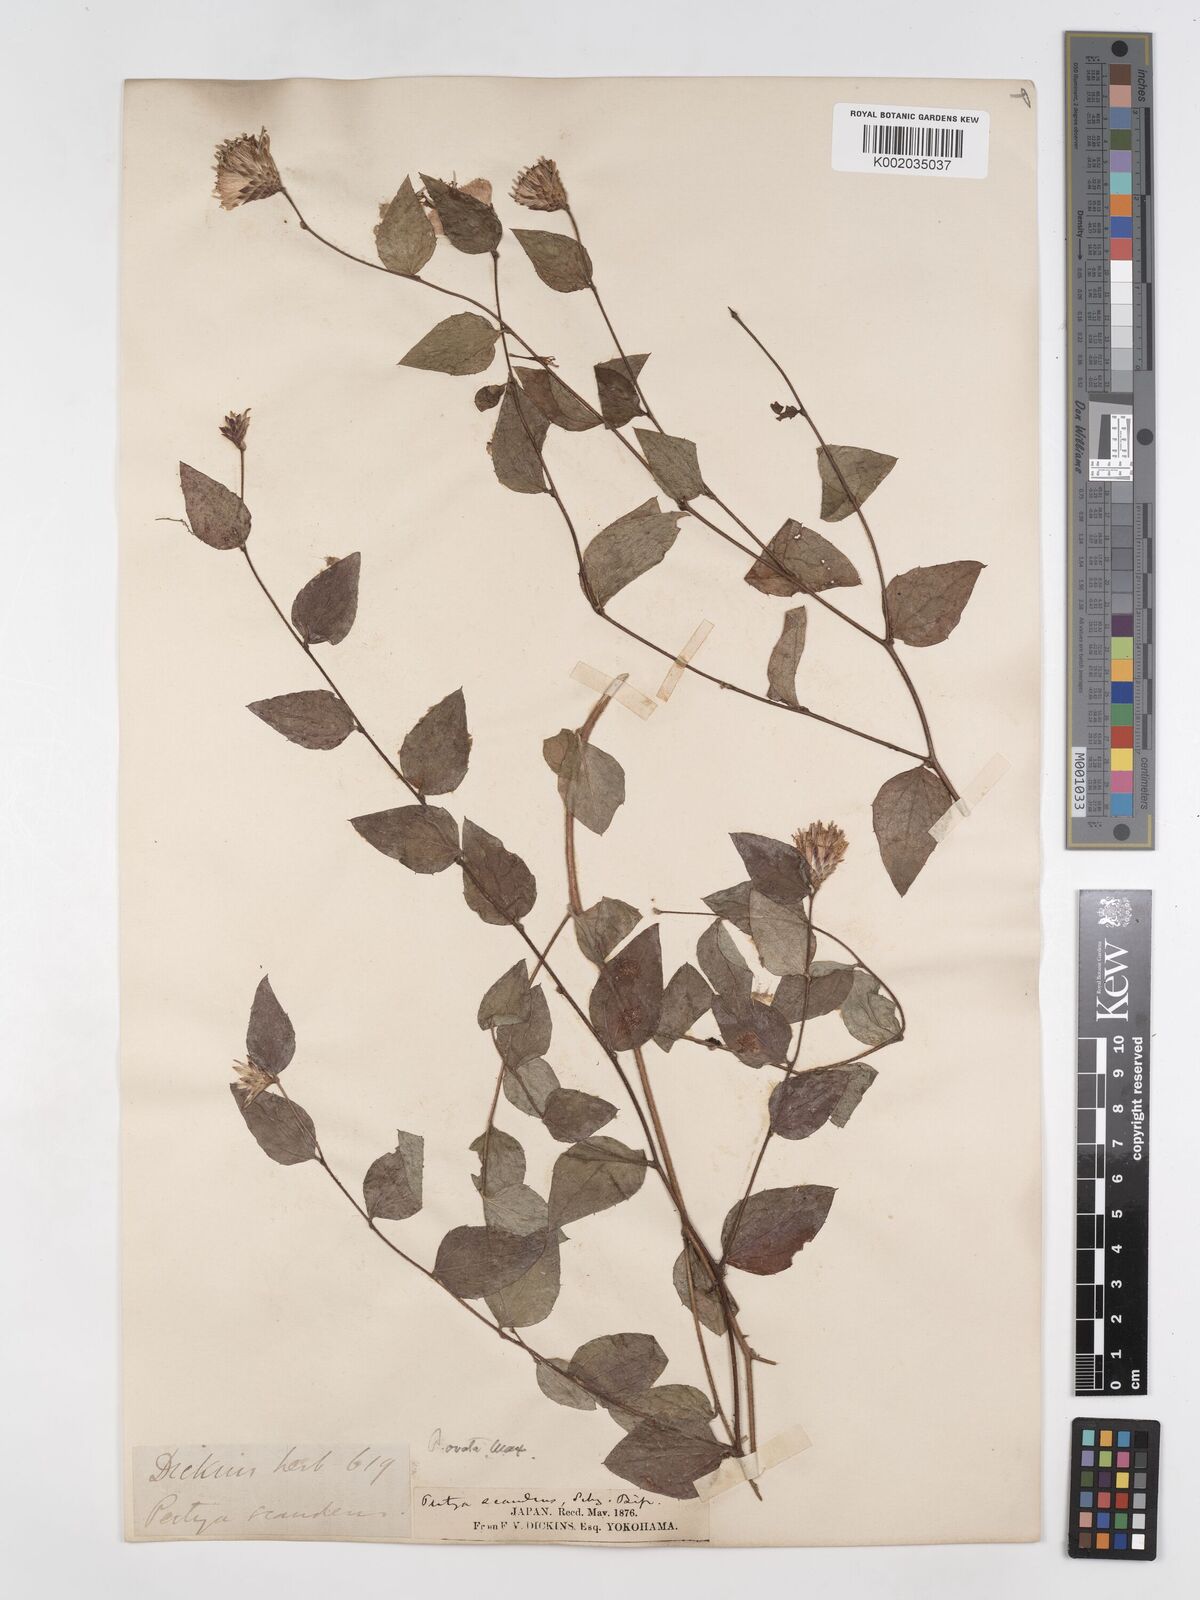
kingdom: Plantae
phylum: Tracheophyta
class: Magnoliopsida
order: Asterales
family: Asteraceae
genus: Pertya
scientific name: Pertya scandens
